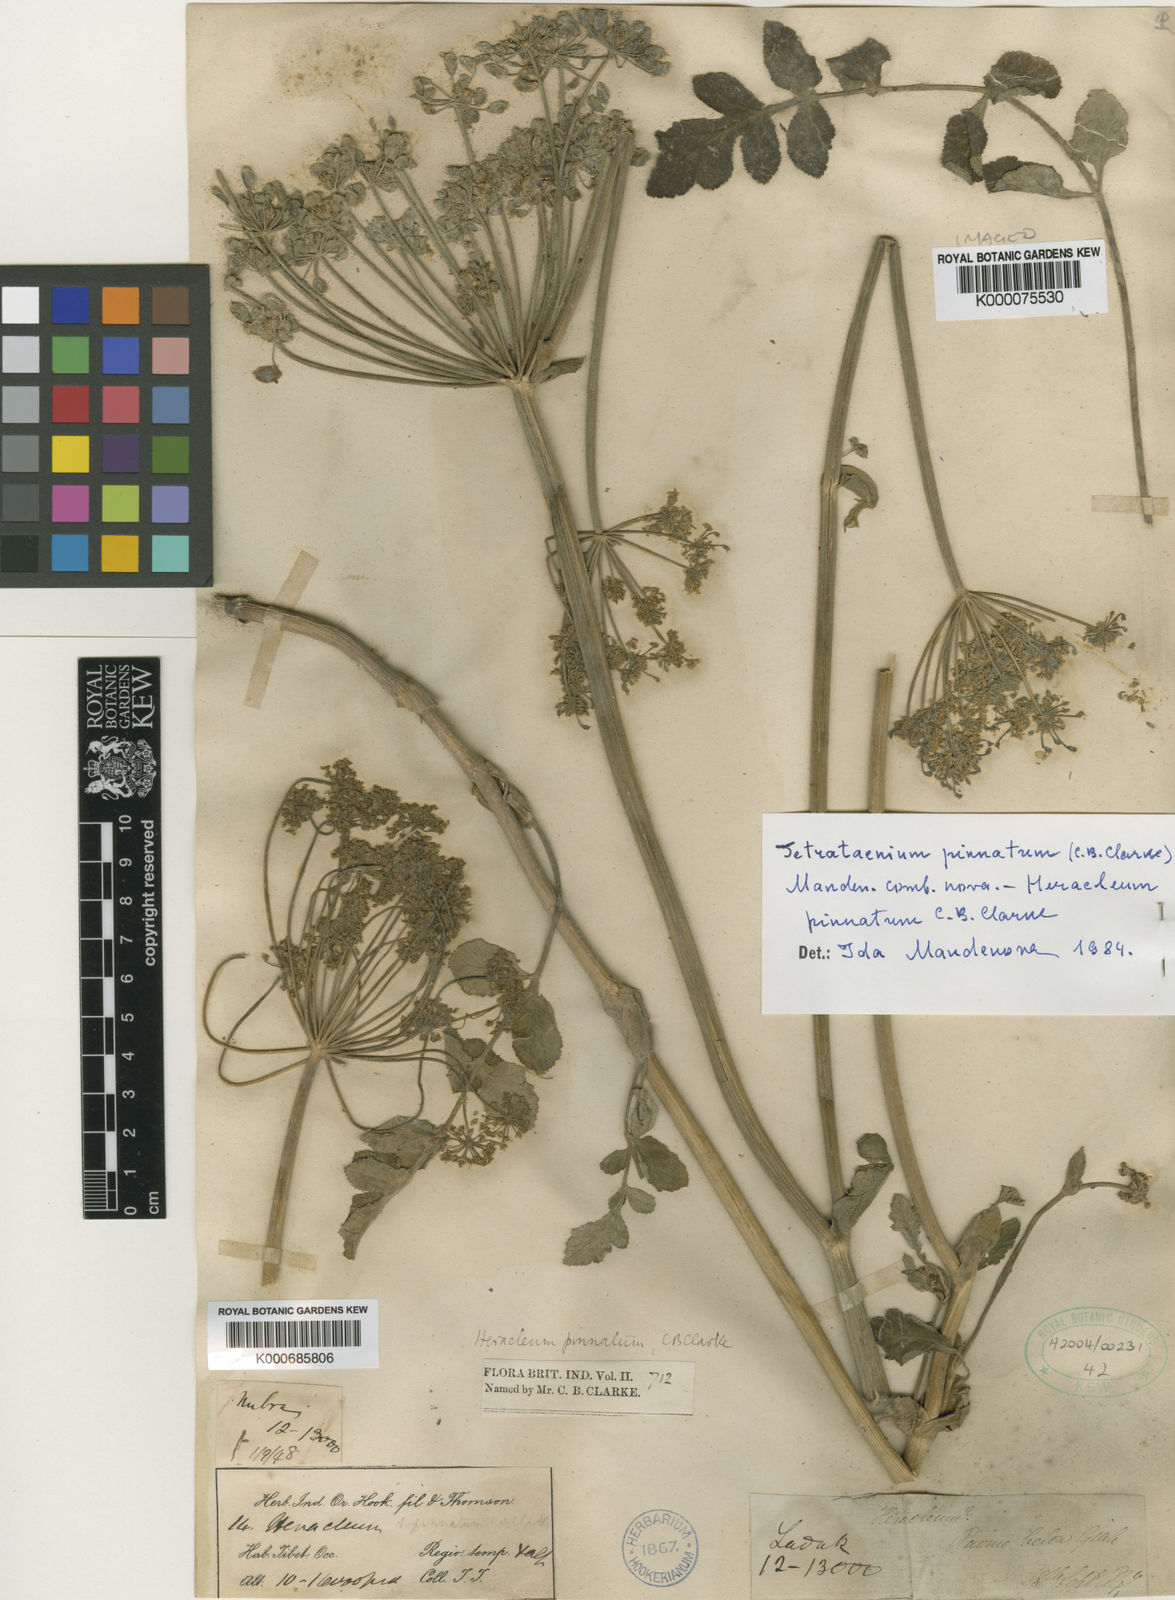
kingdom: Plantae
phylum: Tracheophyta
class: Magnoliopsida
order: Apiales
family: Apiaceae
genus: Tetrataenium
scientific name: Tetrataenium pinnatum
